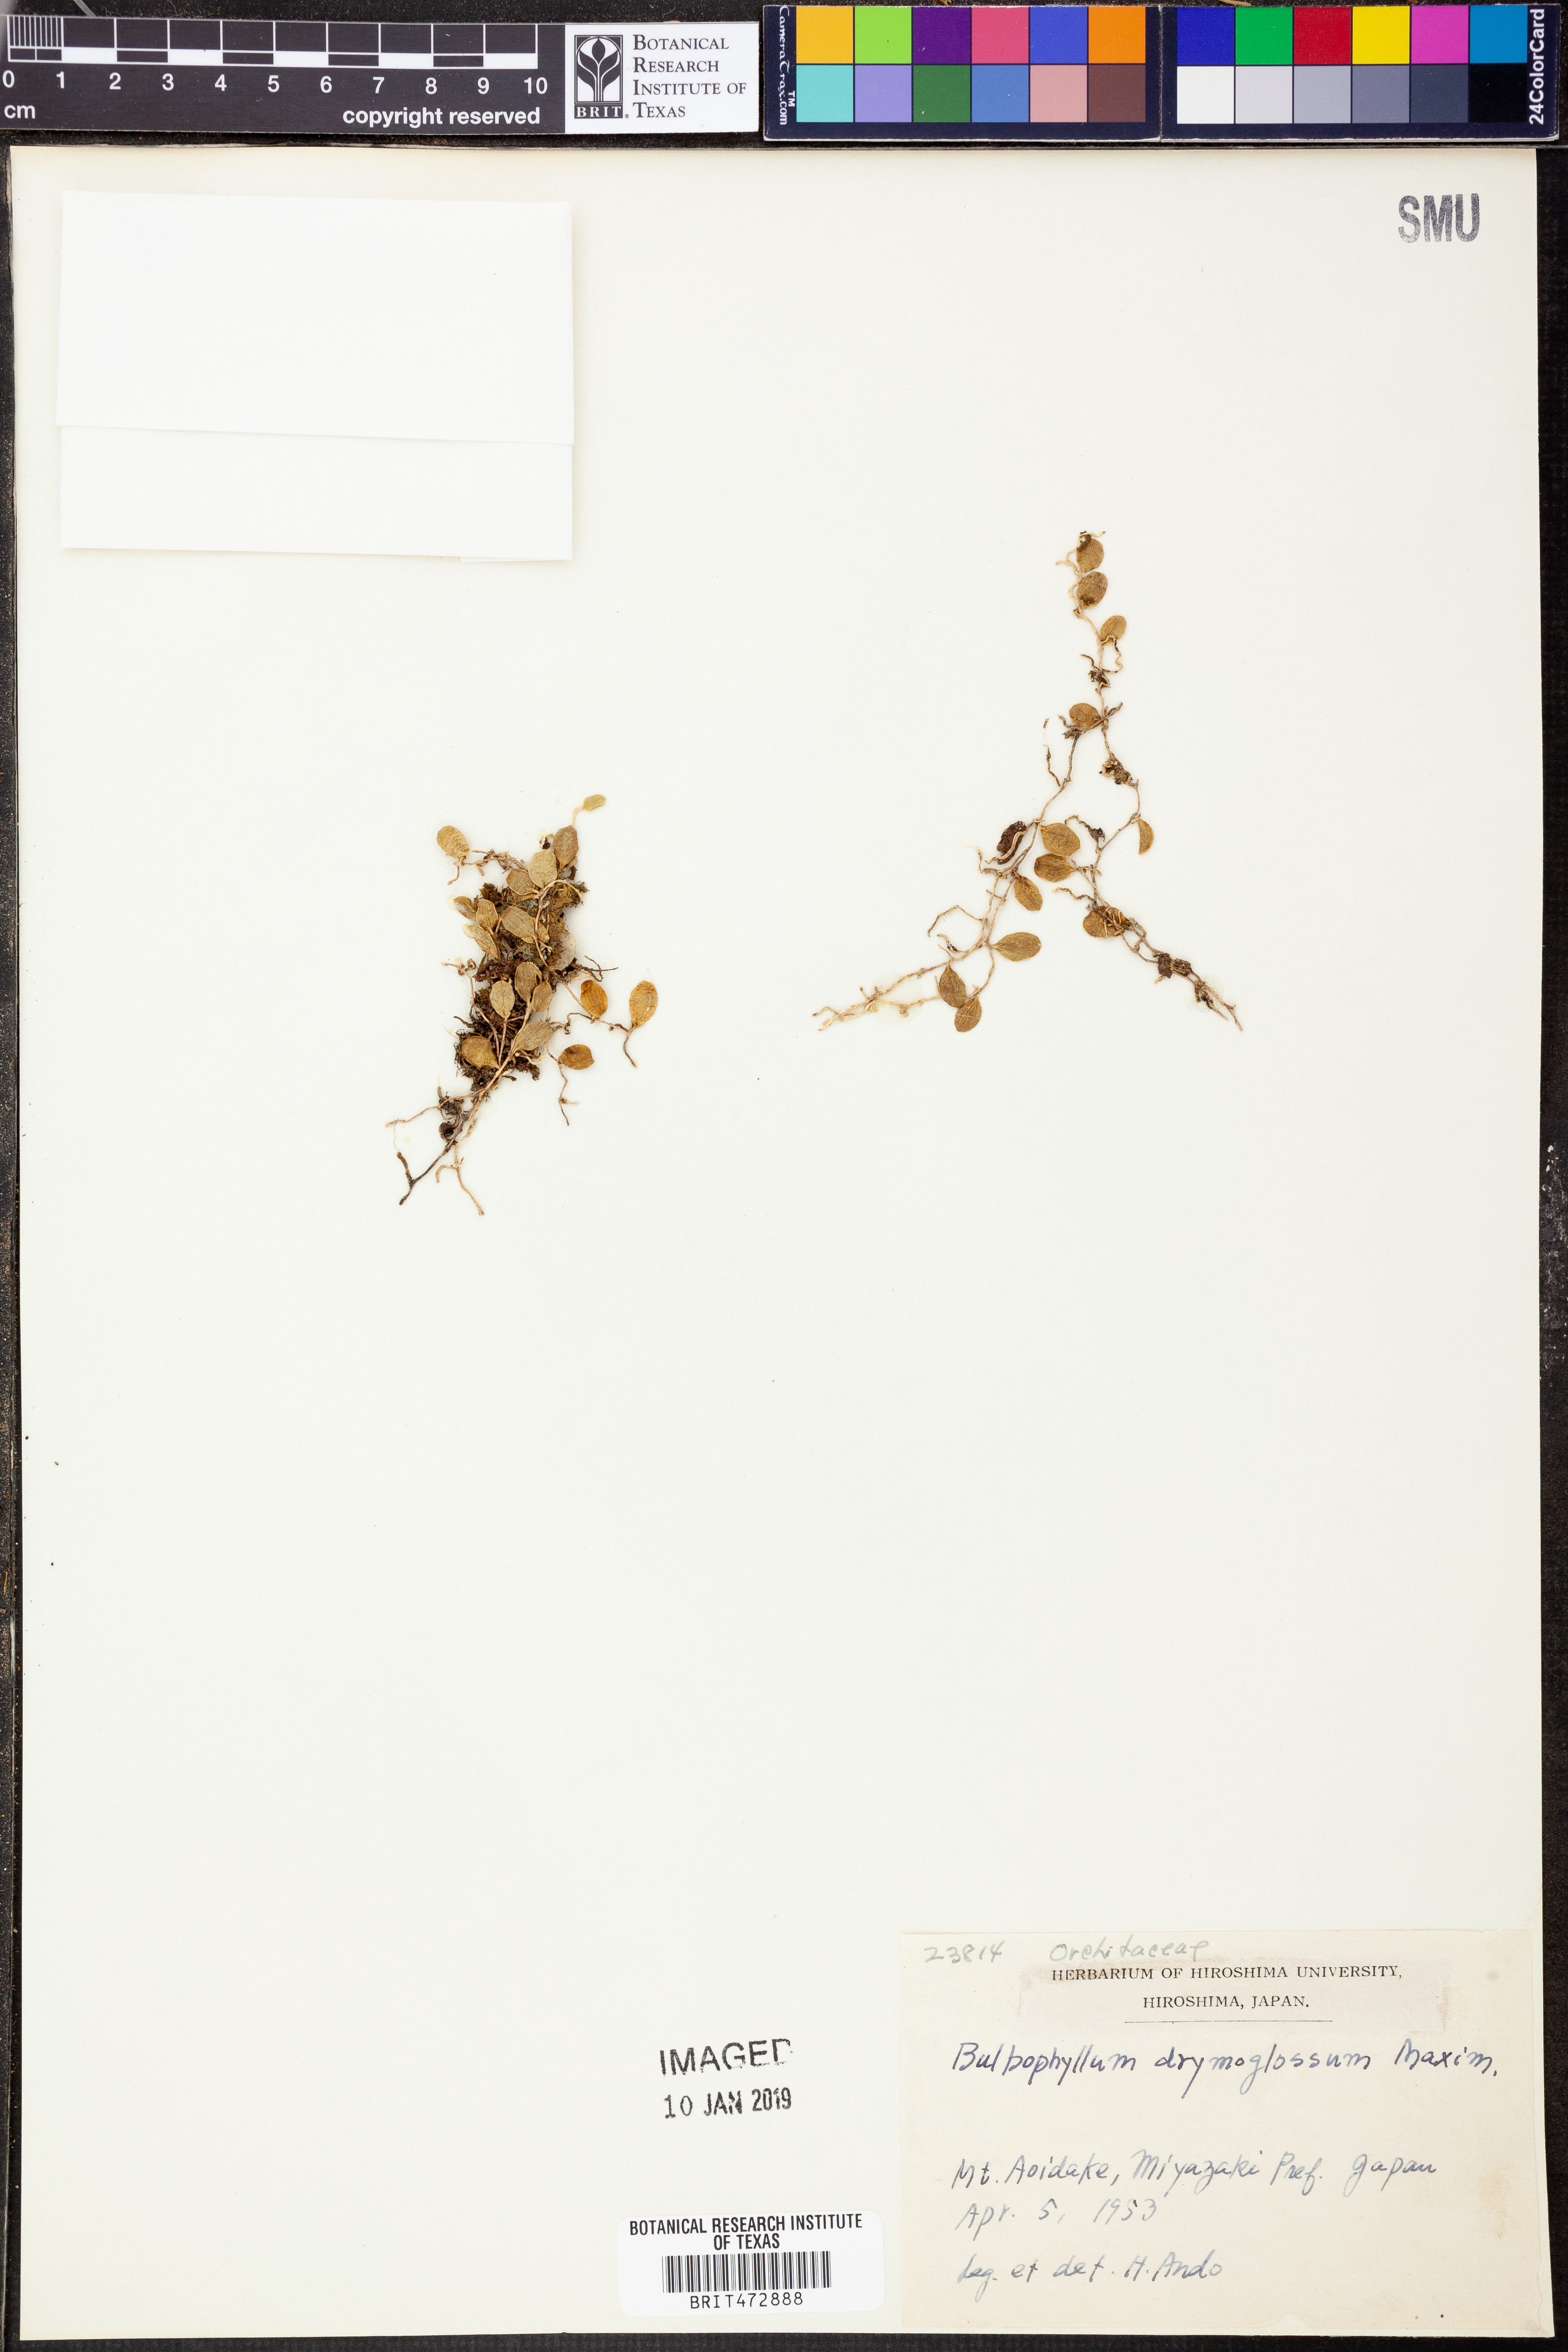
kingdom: Plantae
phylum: Tracheophyta
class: Liliopsida
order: Asparagales
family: Orchidaceae
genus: Bulbophyllum
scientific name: Bulbophyllum drymoglossum
